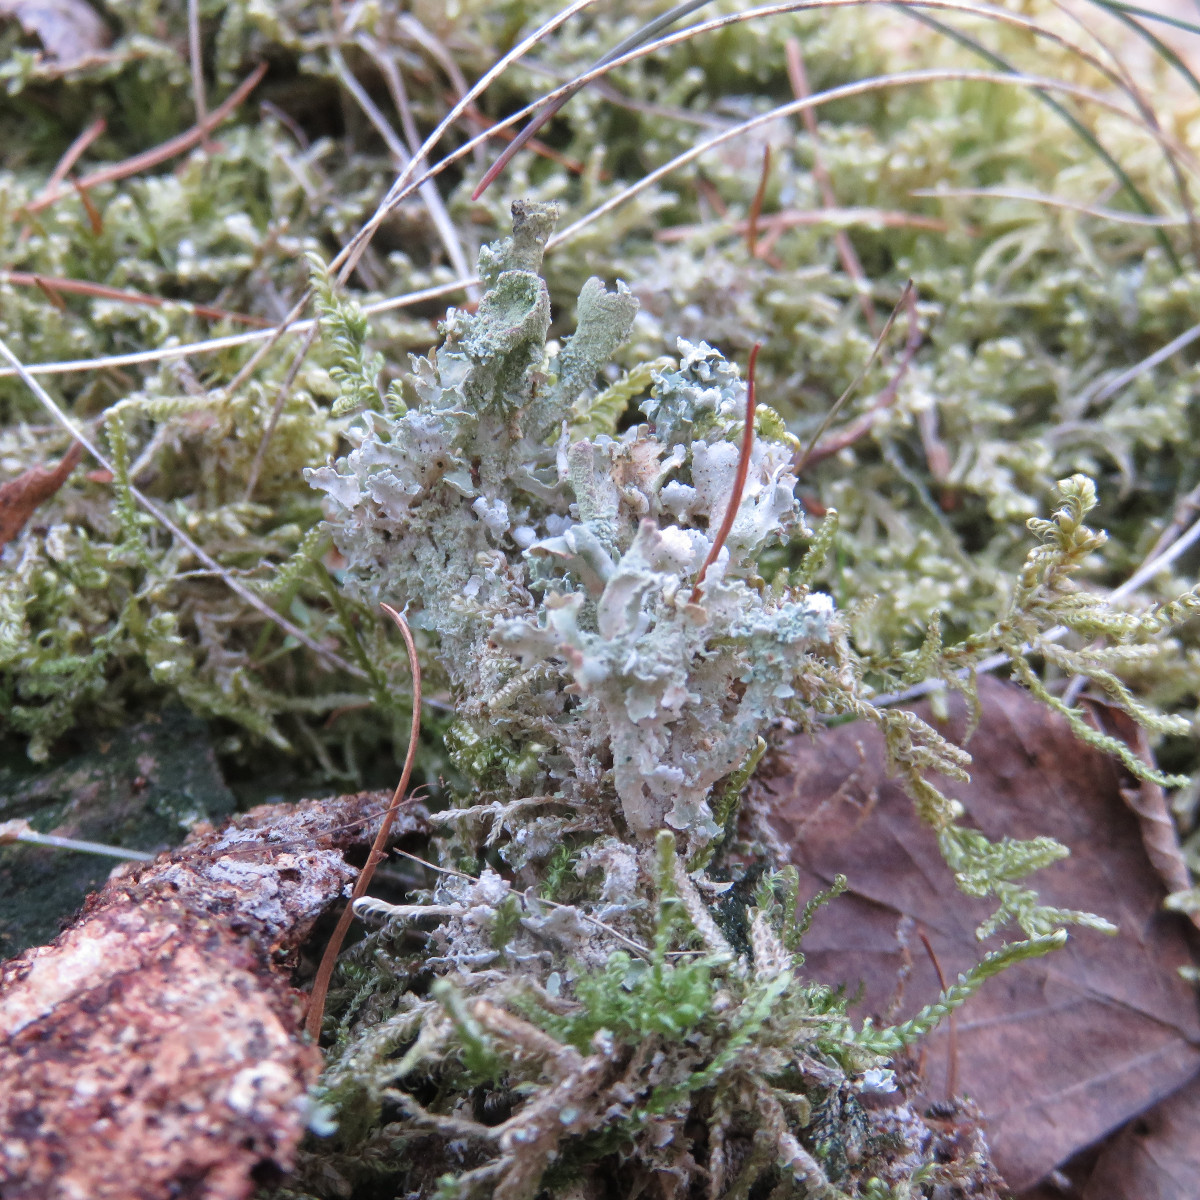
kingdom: Fungi
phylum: Ascomycota
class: Lecanoromycetes
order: Lecanorales
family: Cladoniaceae
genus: Cladonia
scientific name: Cladonia ramulosa
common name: kliddet bægerlav
